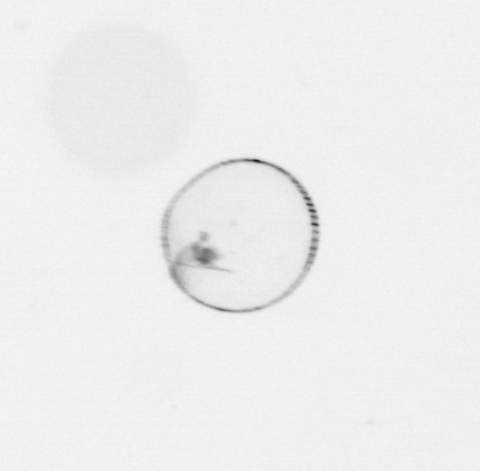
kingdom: Chromista
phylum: Myzozoa
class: Dinophyceae
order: Noctilucales
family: Noctilucaceae
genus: Noctiluca
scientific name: Noctiluca scintillans
